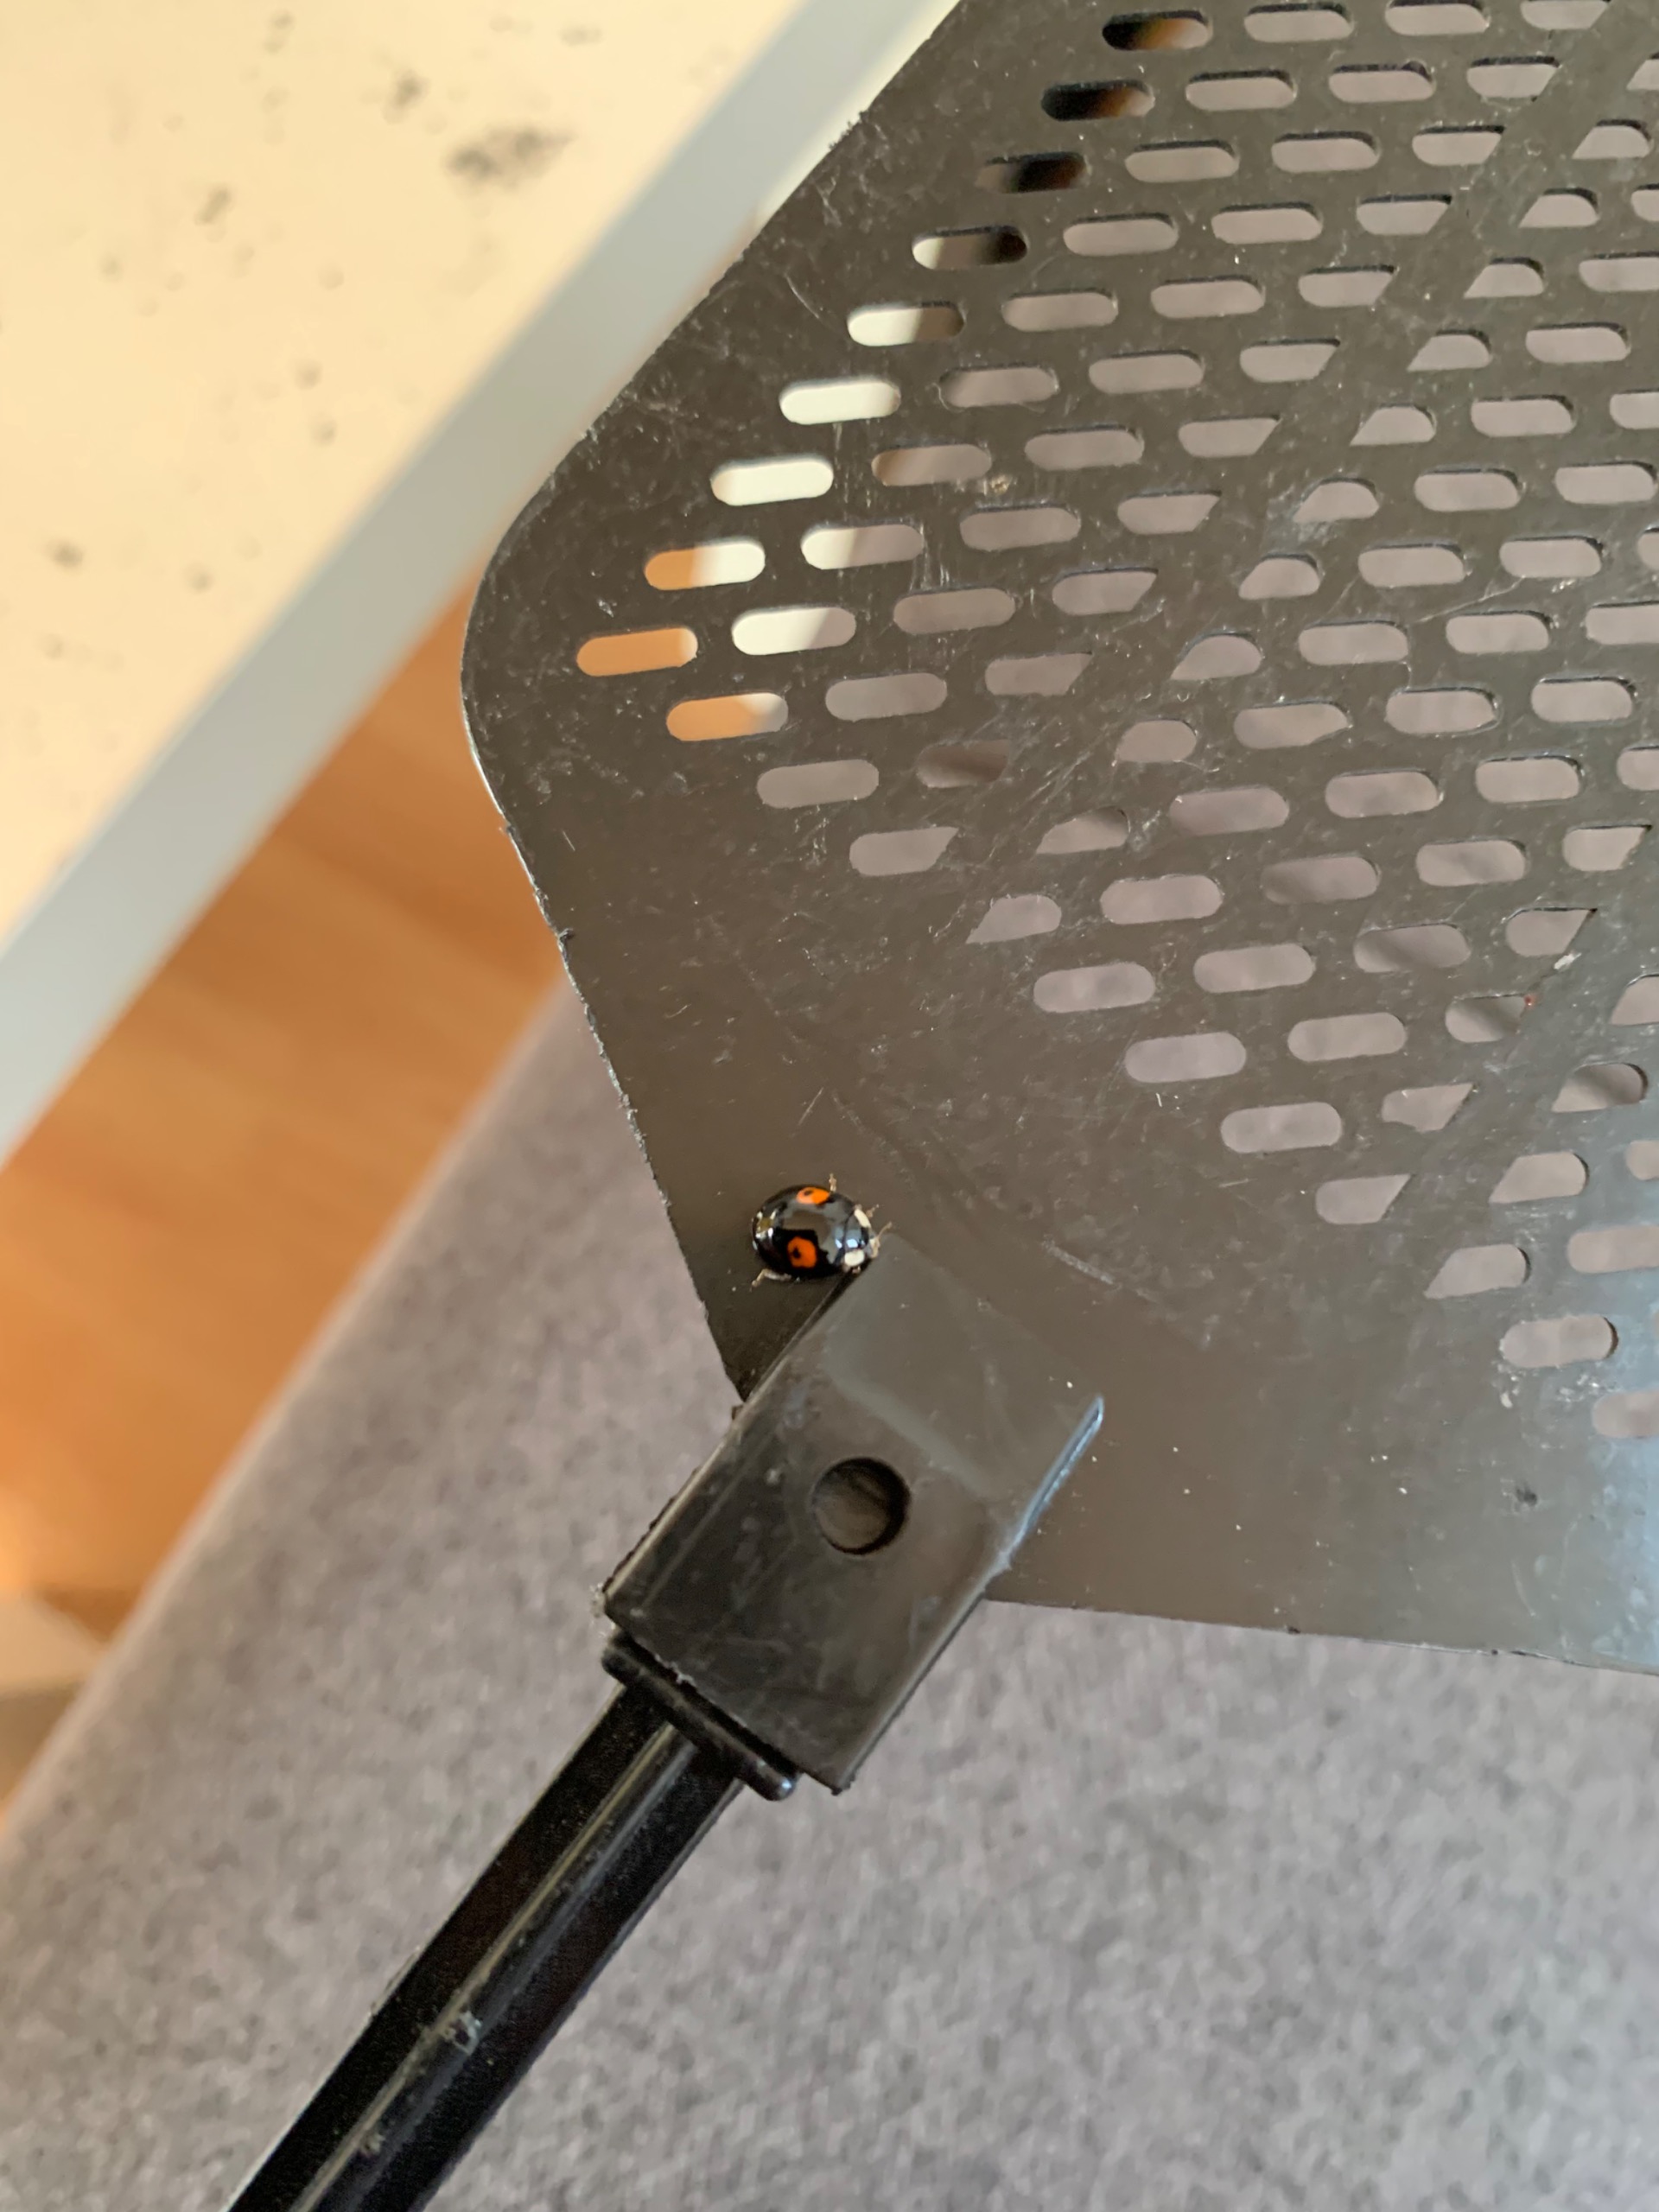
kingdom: Animalia
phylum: Arthropoda
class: Insecta
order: Coleoptera
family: Coccinellidae
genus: Harmonia
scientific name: Harmonia axyridis
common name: Harlekinmariehøne
